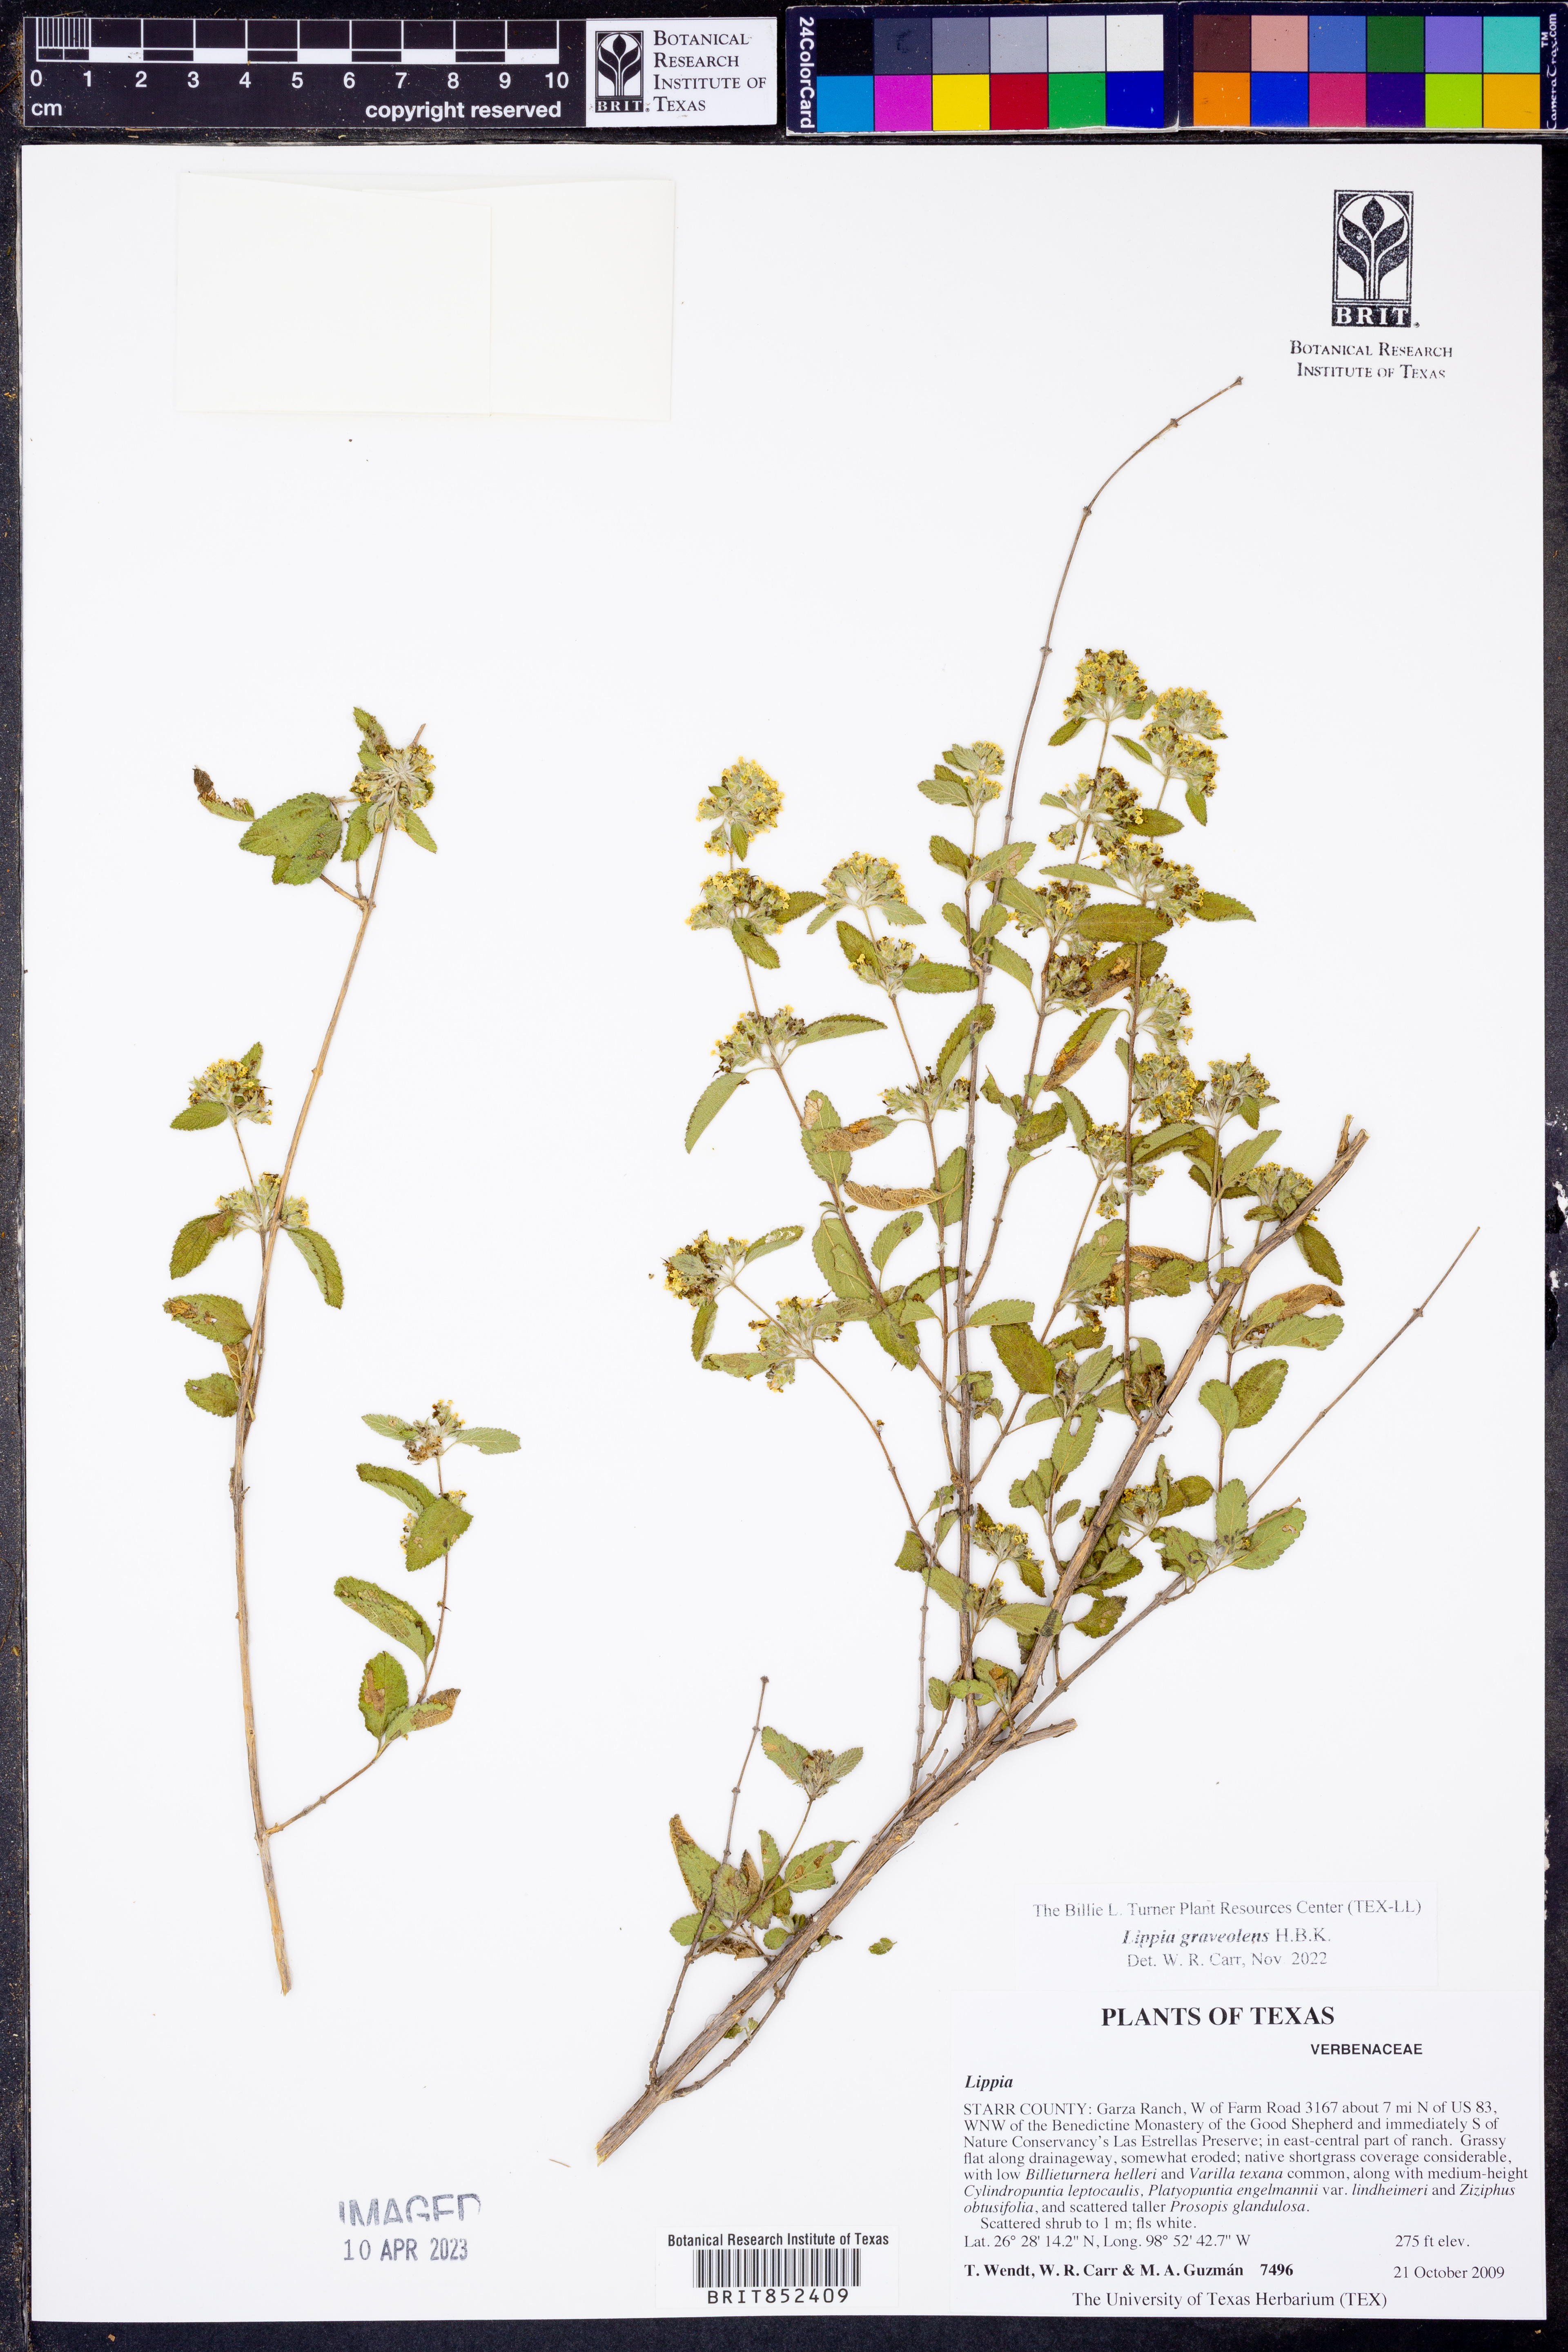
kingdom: Plantae
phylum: Tracheophyta
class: Magnoliopsida
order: Lamiales
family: Verbenaceae
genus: Lippia
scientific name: Lippia origanoides
